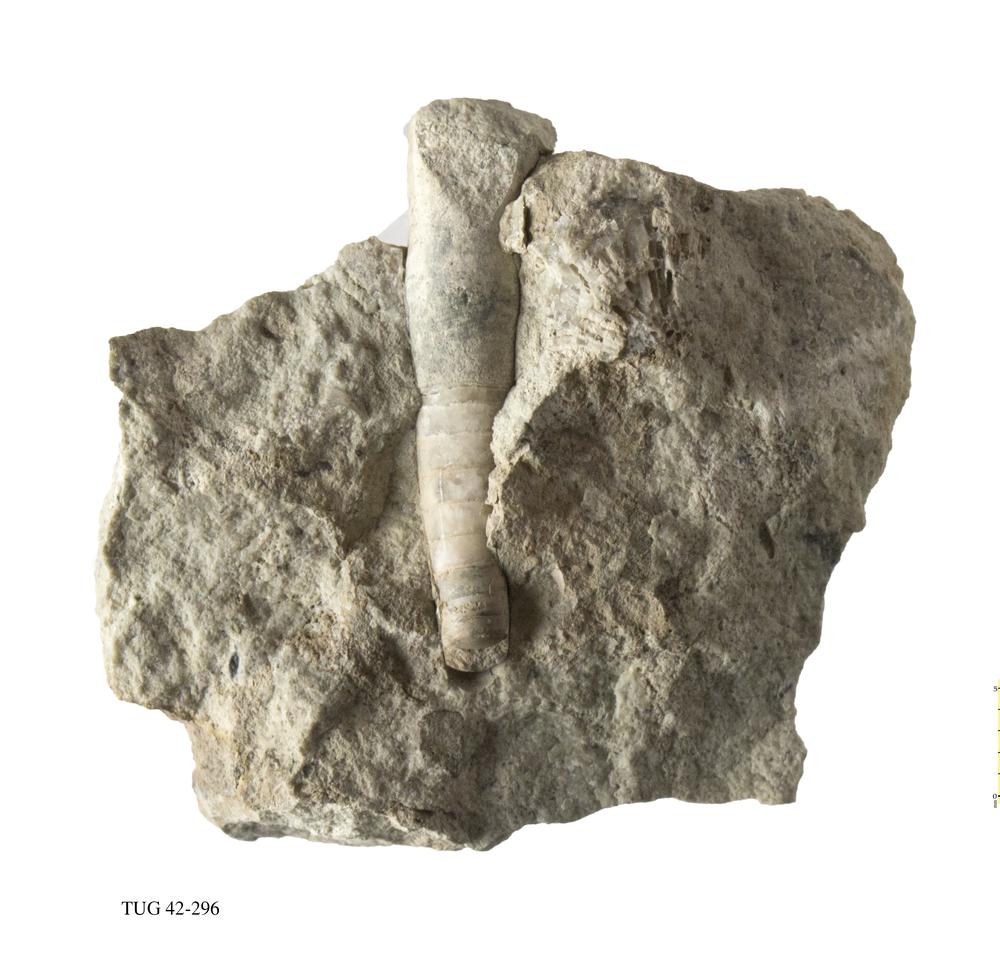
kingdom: Animalia
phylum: Mollusca
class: Cephalopoda
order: Orthocerida
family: Orthoceratidae
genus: Orthoceras
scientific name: Orthoceras regulare
